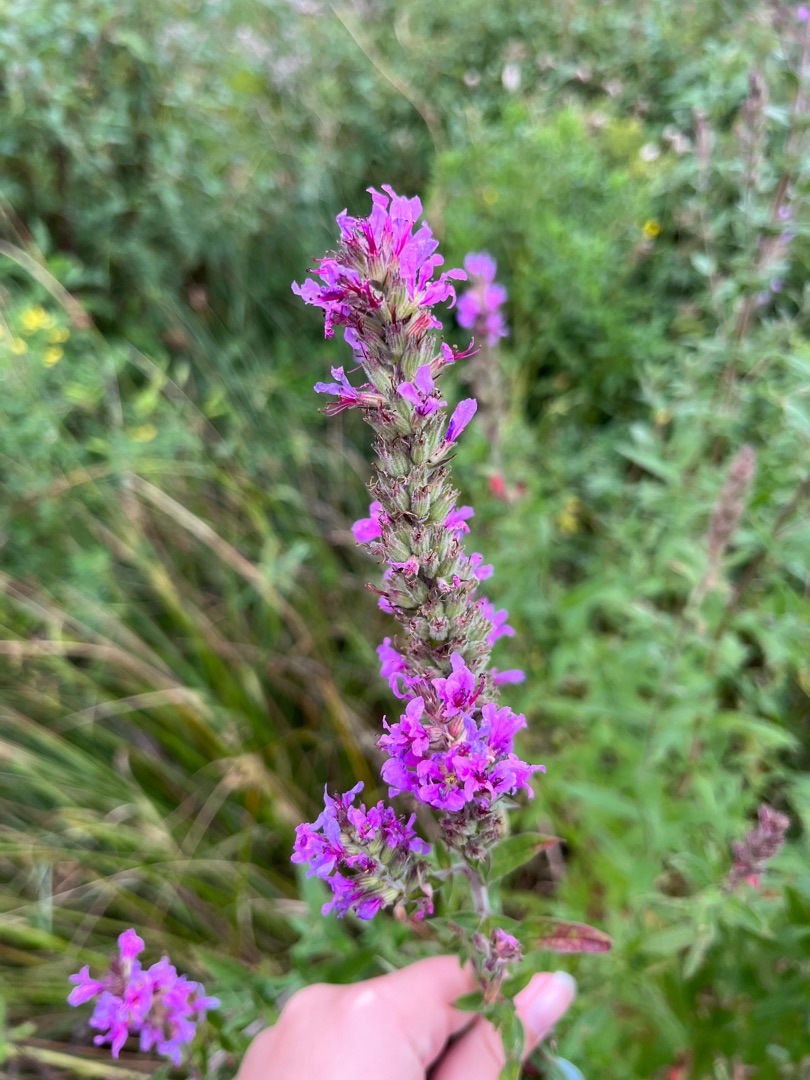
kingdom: Plantae
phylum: Tracheophyta
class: Magnoliopsida
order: Myrtales
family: Lythraceae
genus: Lythrum
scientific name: Lythrum salicaria
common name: Kattehale
